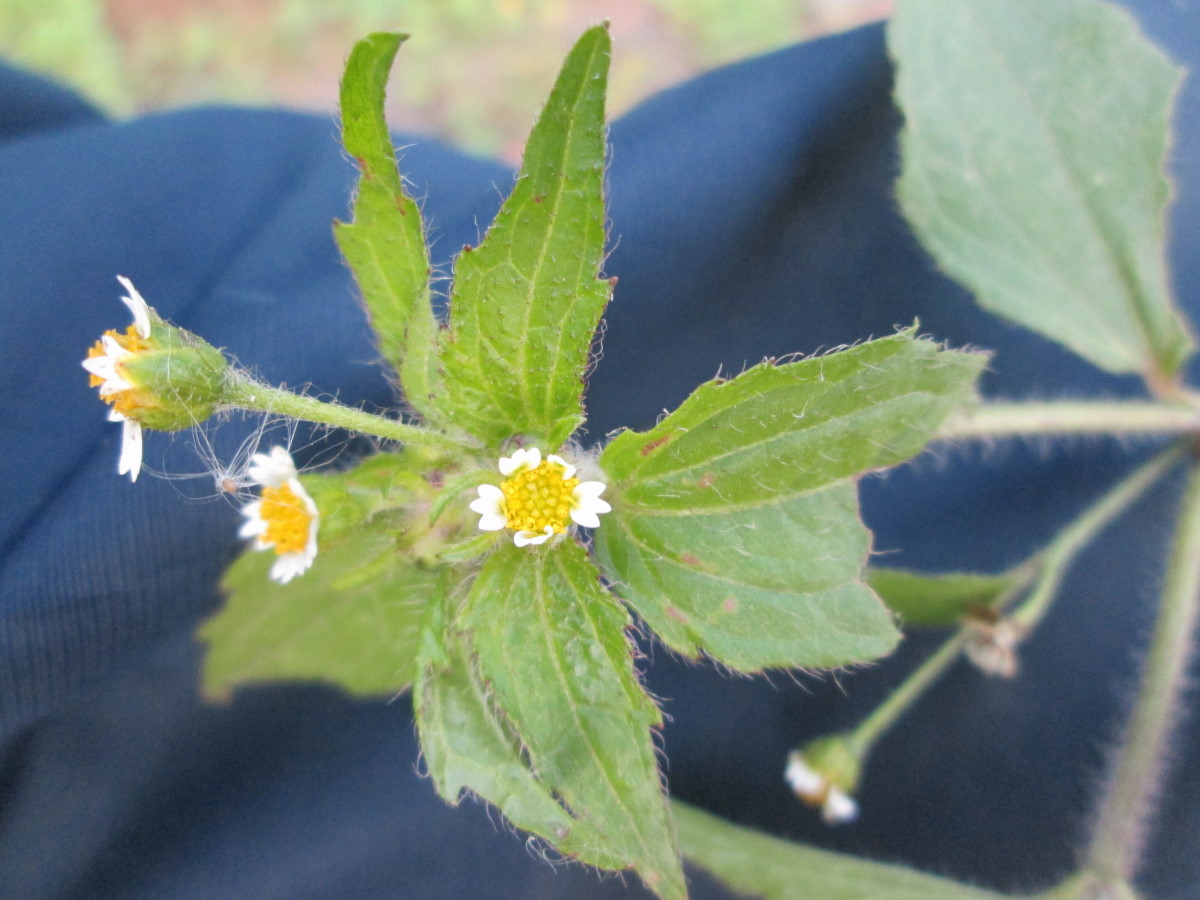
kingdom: Plantae
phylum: Tracheophyta
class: Magnoliopsida
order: Asterales
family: Asteraceae
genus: Galinsoga
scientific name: Galinsoga parviflora
